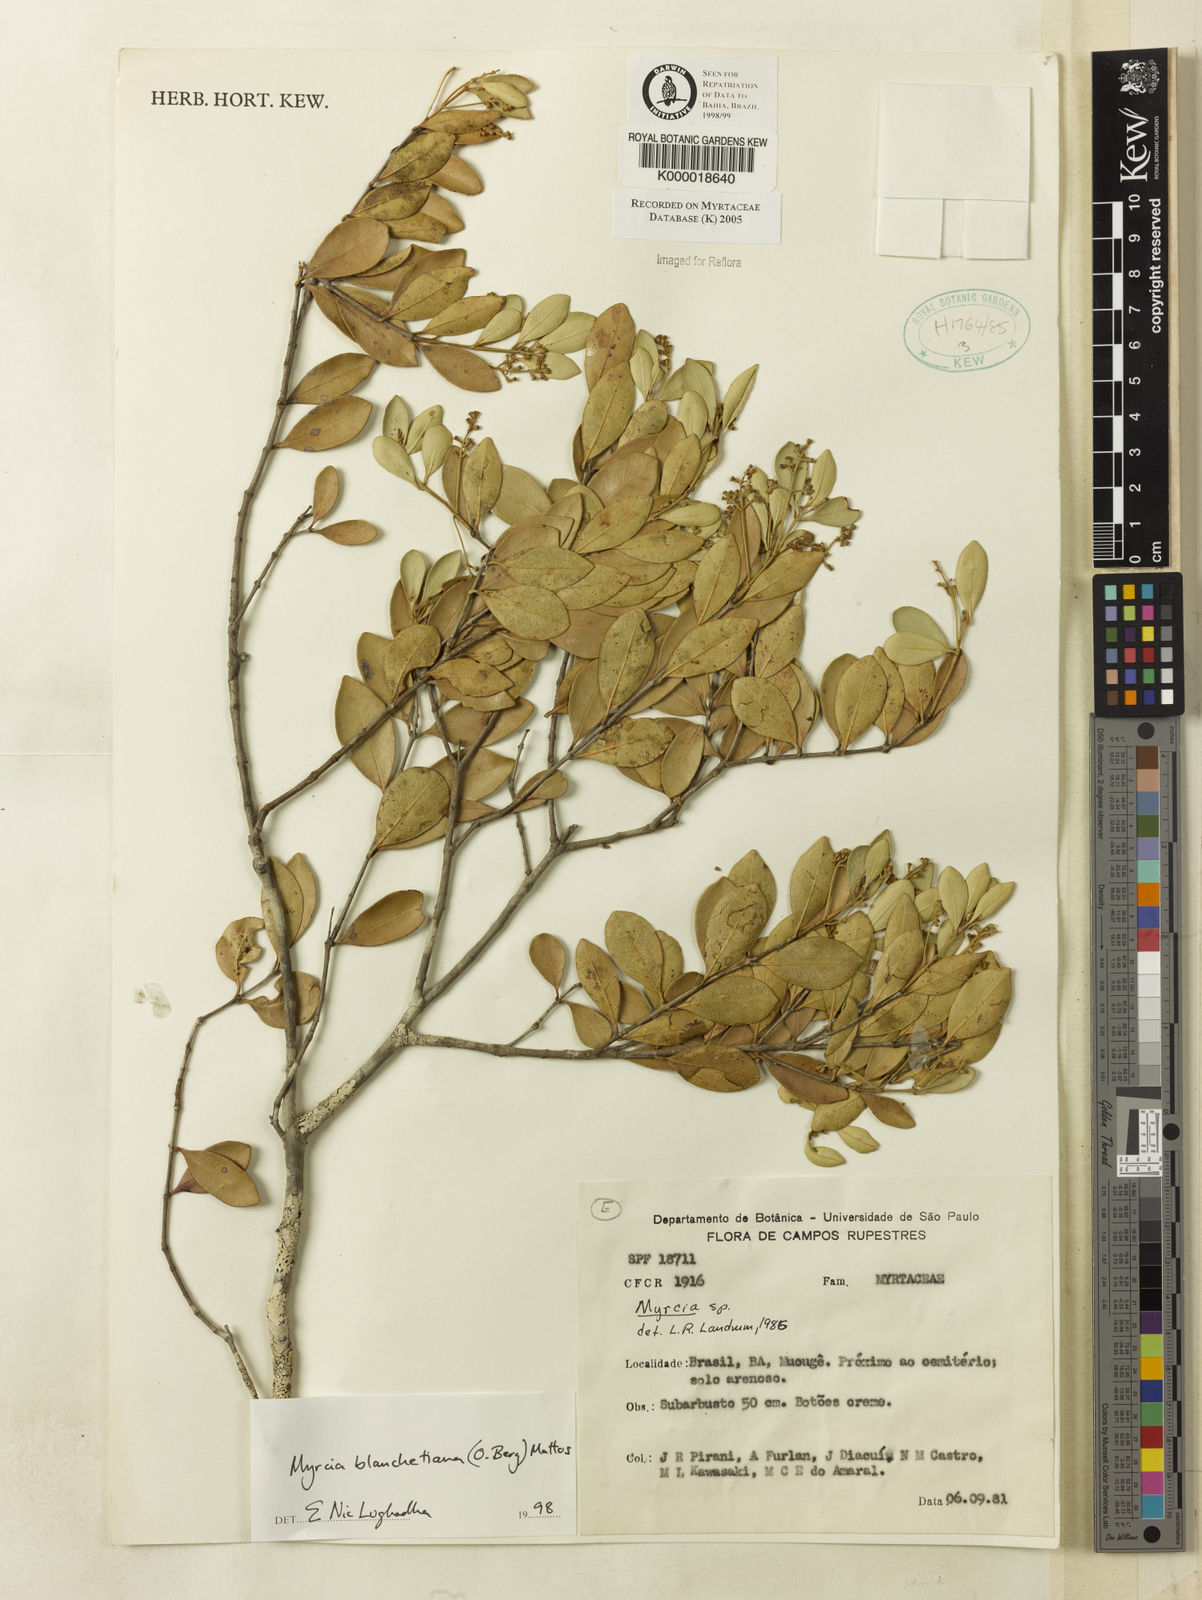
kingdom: Plantae
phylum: Tracheophyta
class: Magnoliopsida
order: Myrtales
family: Myrtaceae
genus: Myrcia
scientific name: Myrcia blanchetiana
